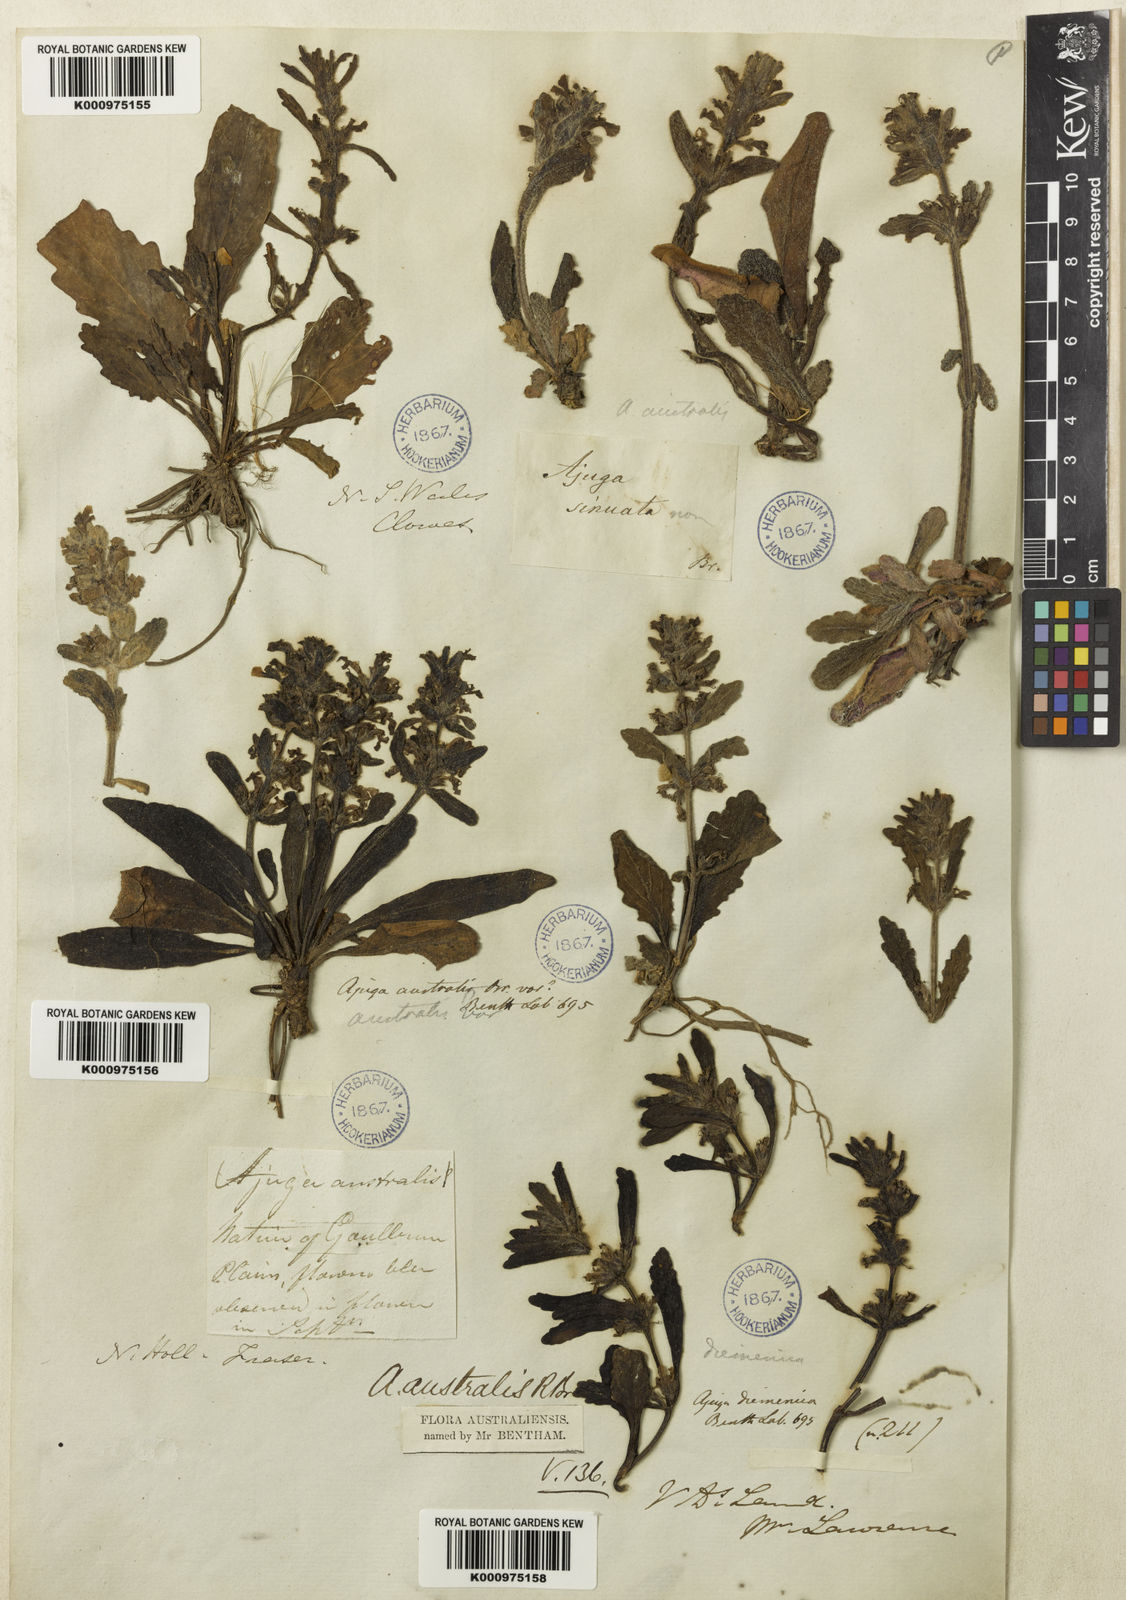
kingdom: Plantae
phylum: Tracheophyta
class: Magnoliopsida
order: Lamiales
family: Lamiaceae
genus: Ajuga
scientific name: Ajuga australis
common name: Australian bugle
